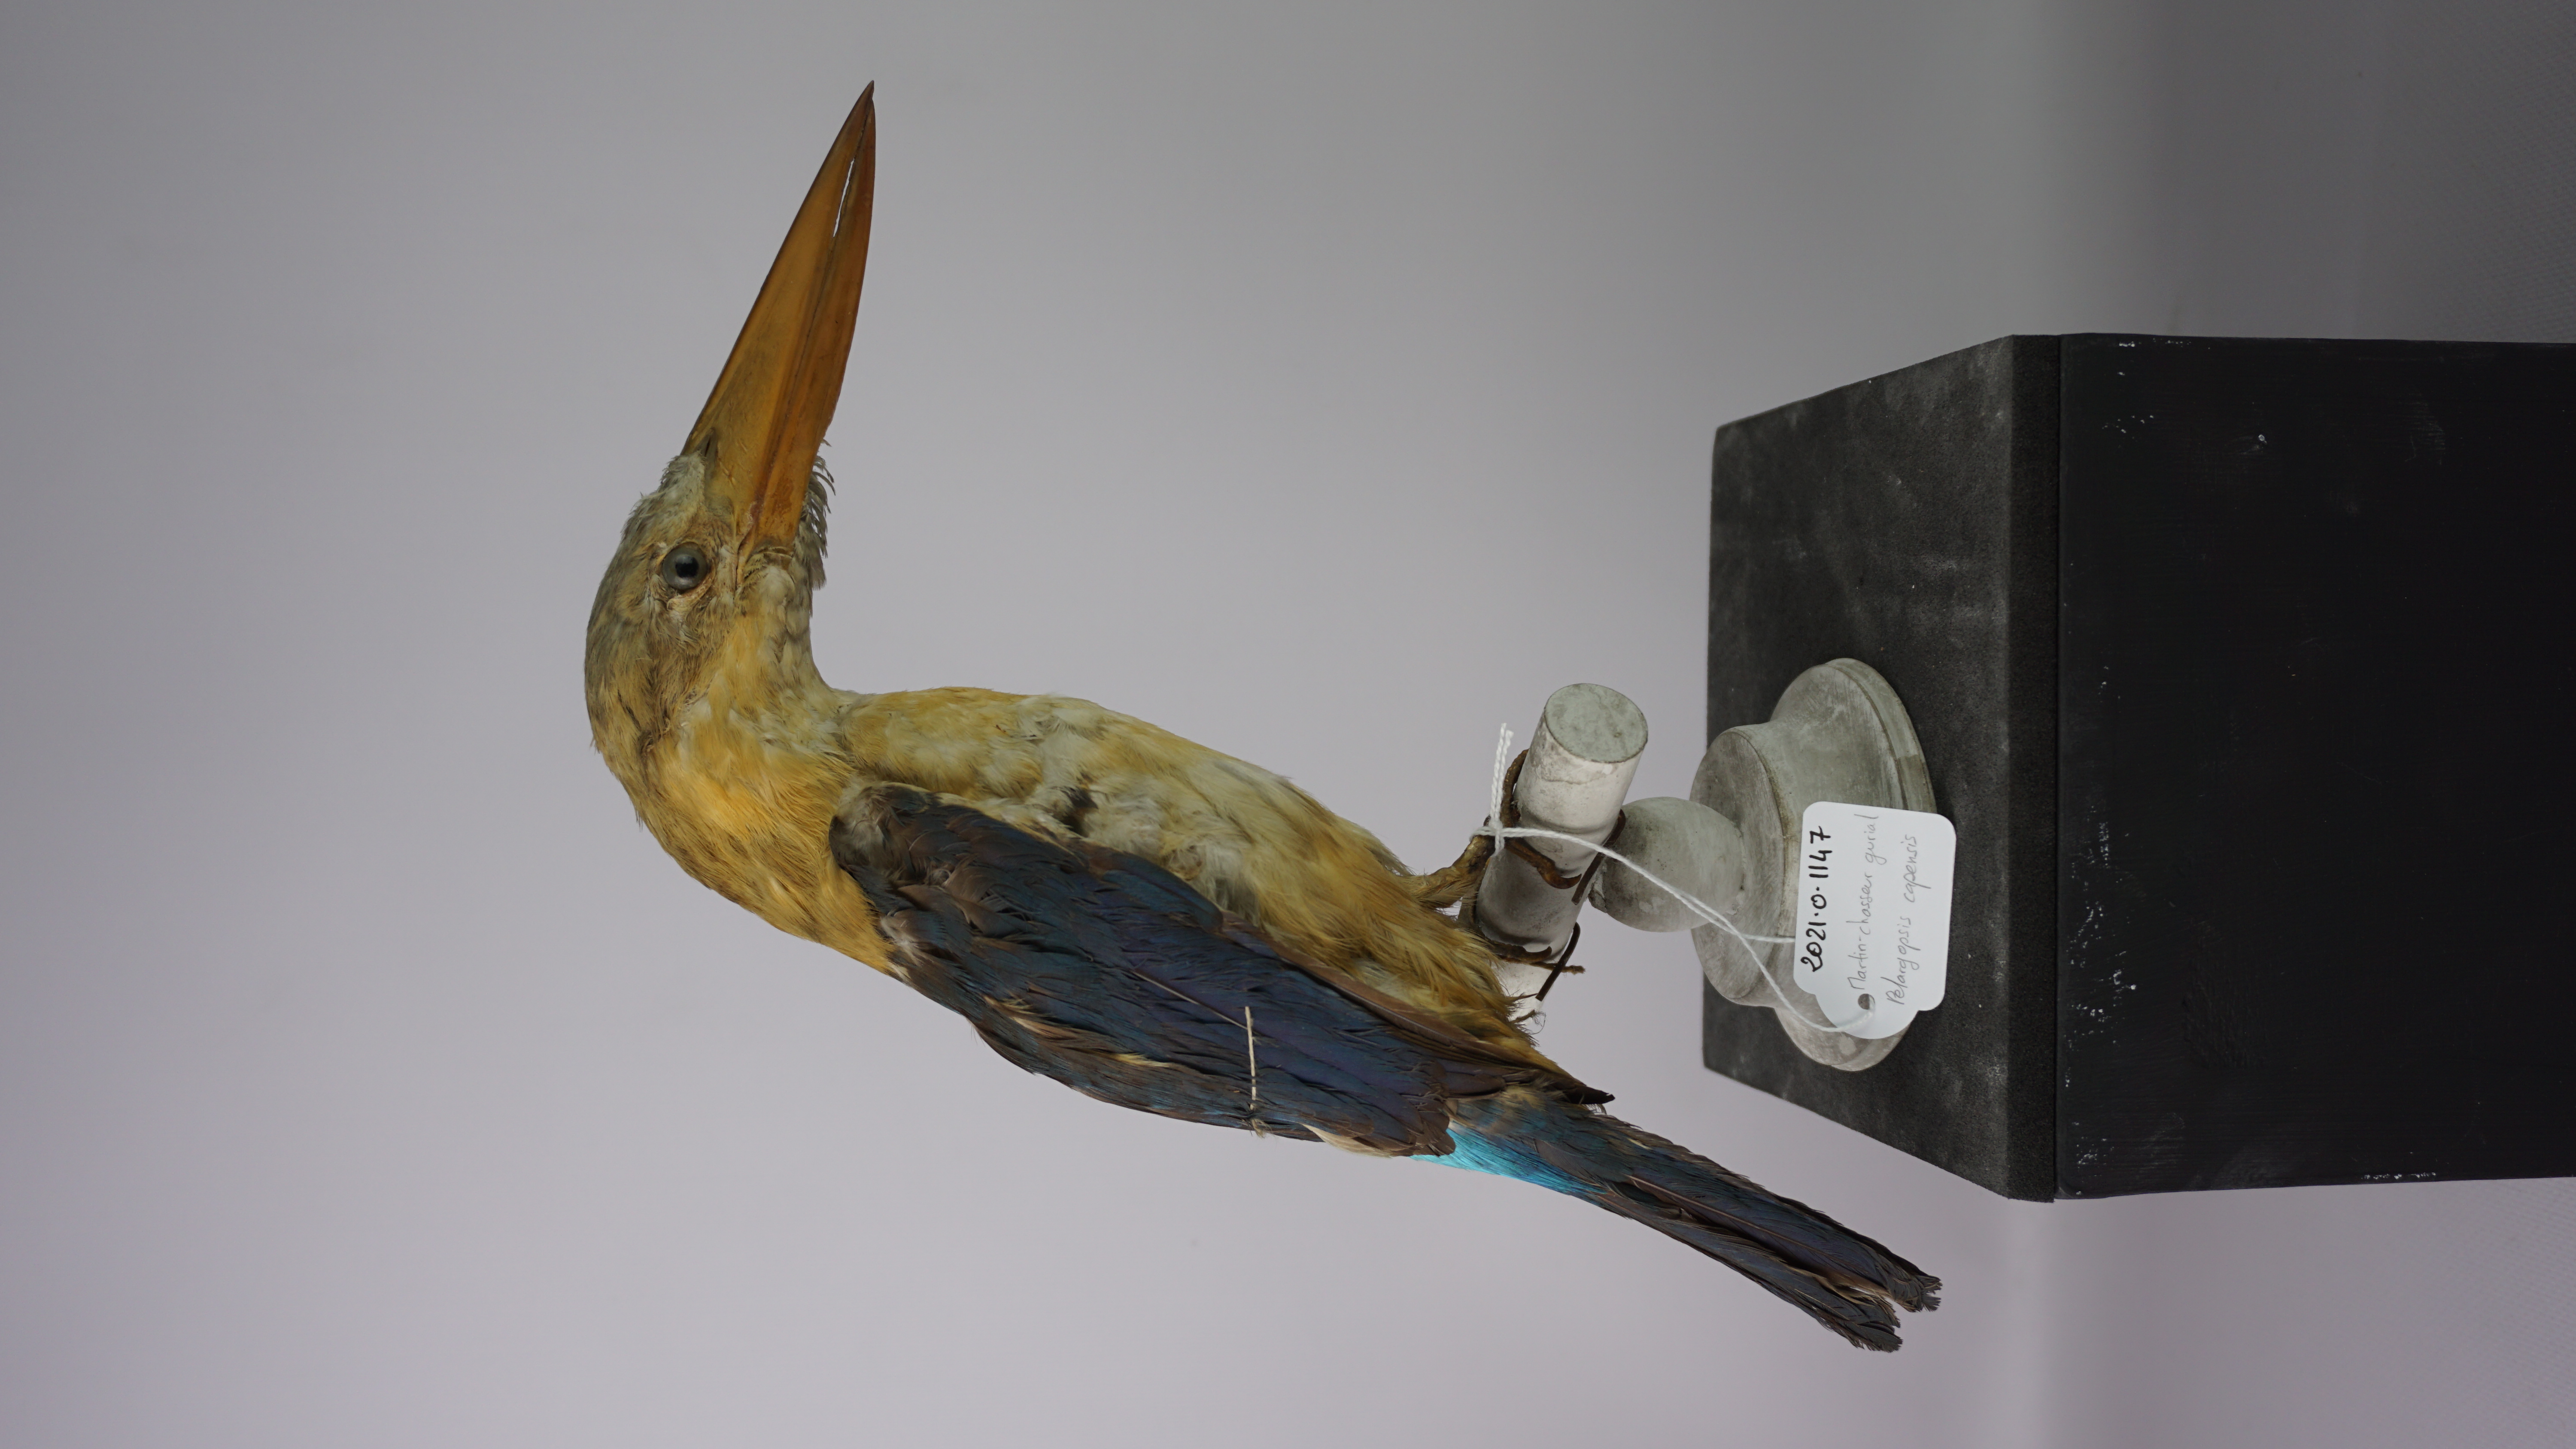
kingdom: Animalia
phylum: Chordata
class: Aves
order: Coraciiformes
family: Alcedinidae
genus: Pelargopsis
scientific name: Pelargopsis capensis
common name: Stork-billed kingfisher
